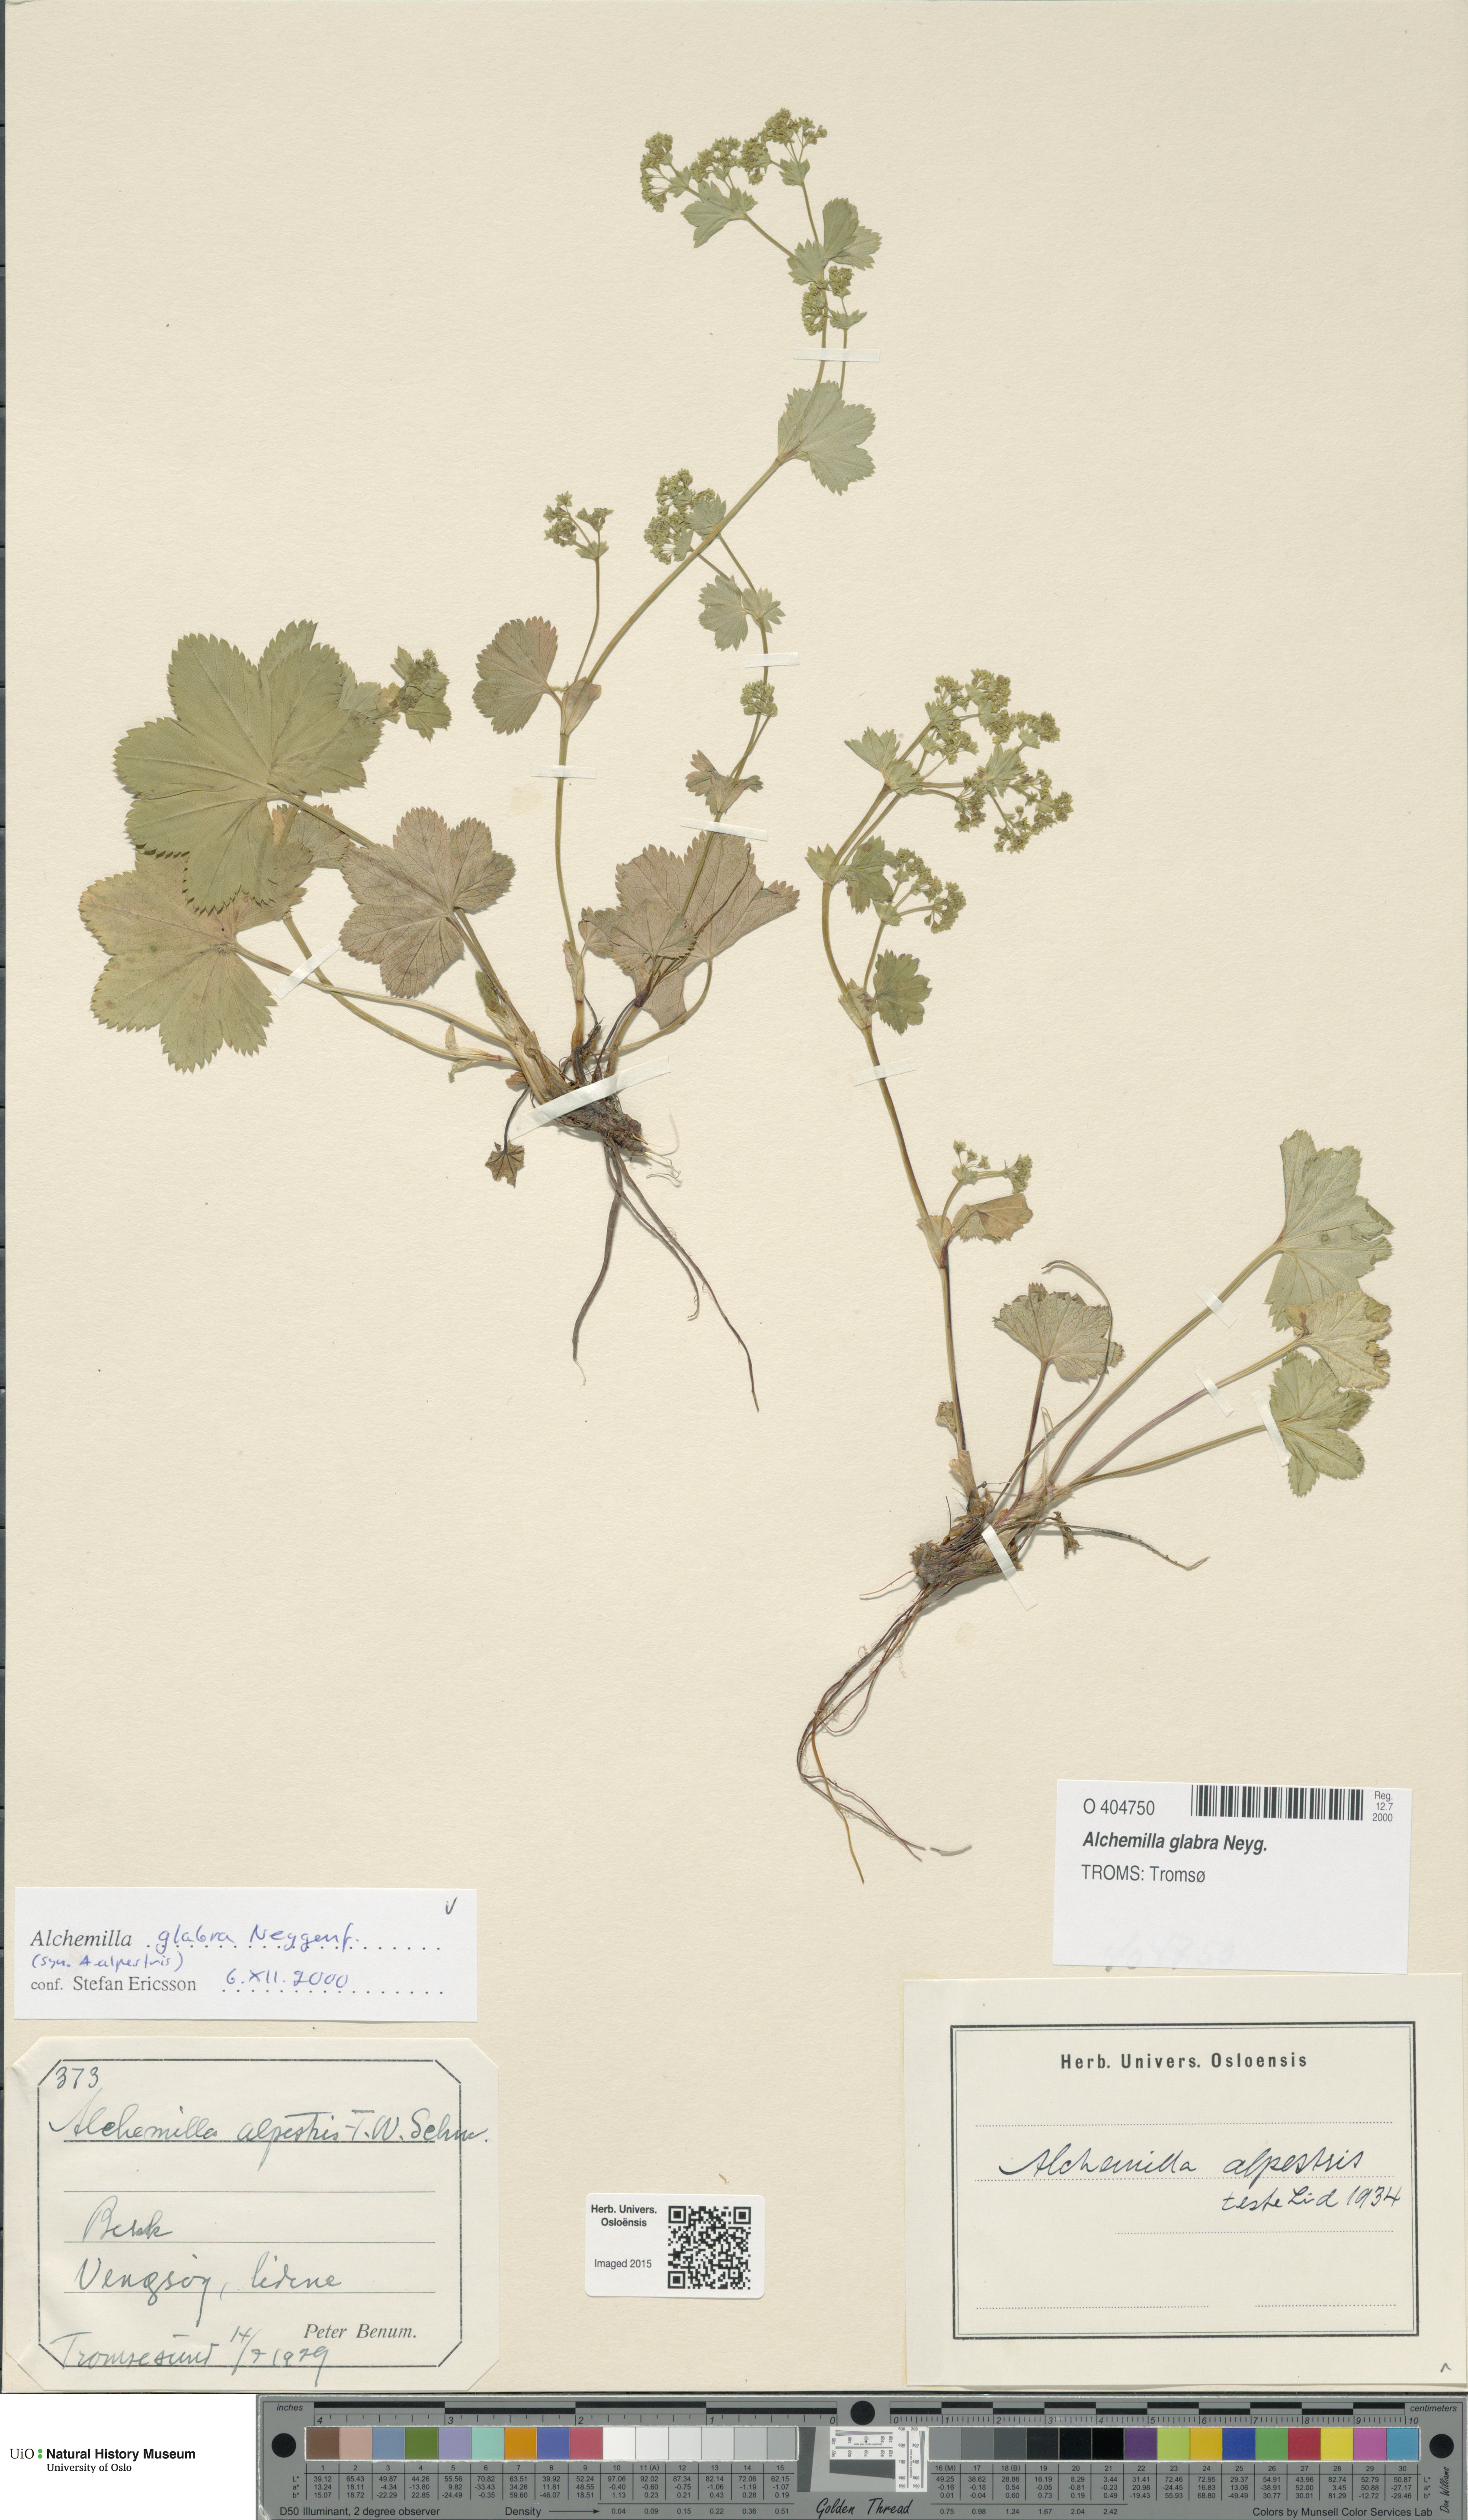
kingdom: Plantae
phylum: Tracheophyta
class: Magnoliopsida
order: Rosales
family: Rosaceae
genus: Alchemilla
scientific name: Alchemilla glabra
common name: Smooth lady's-mantle
